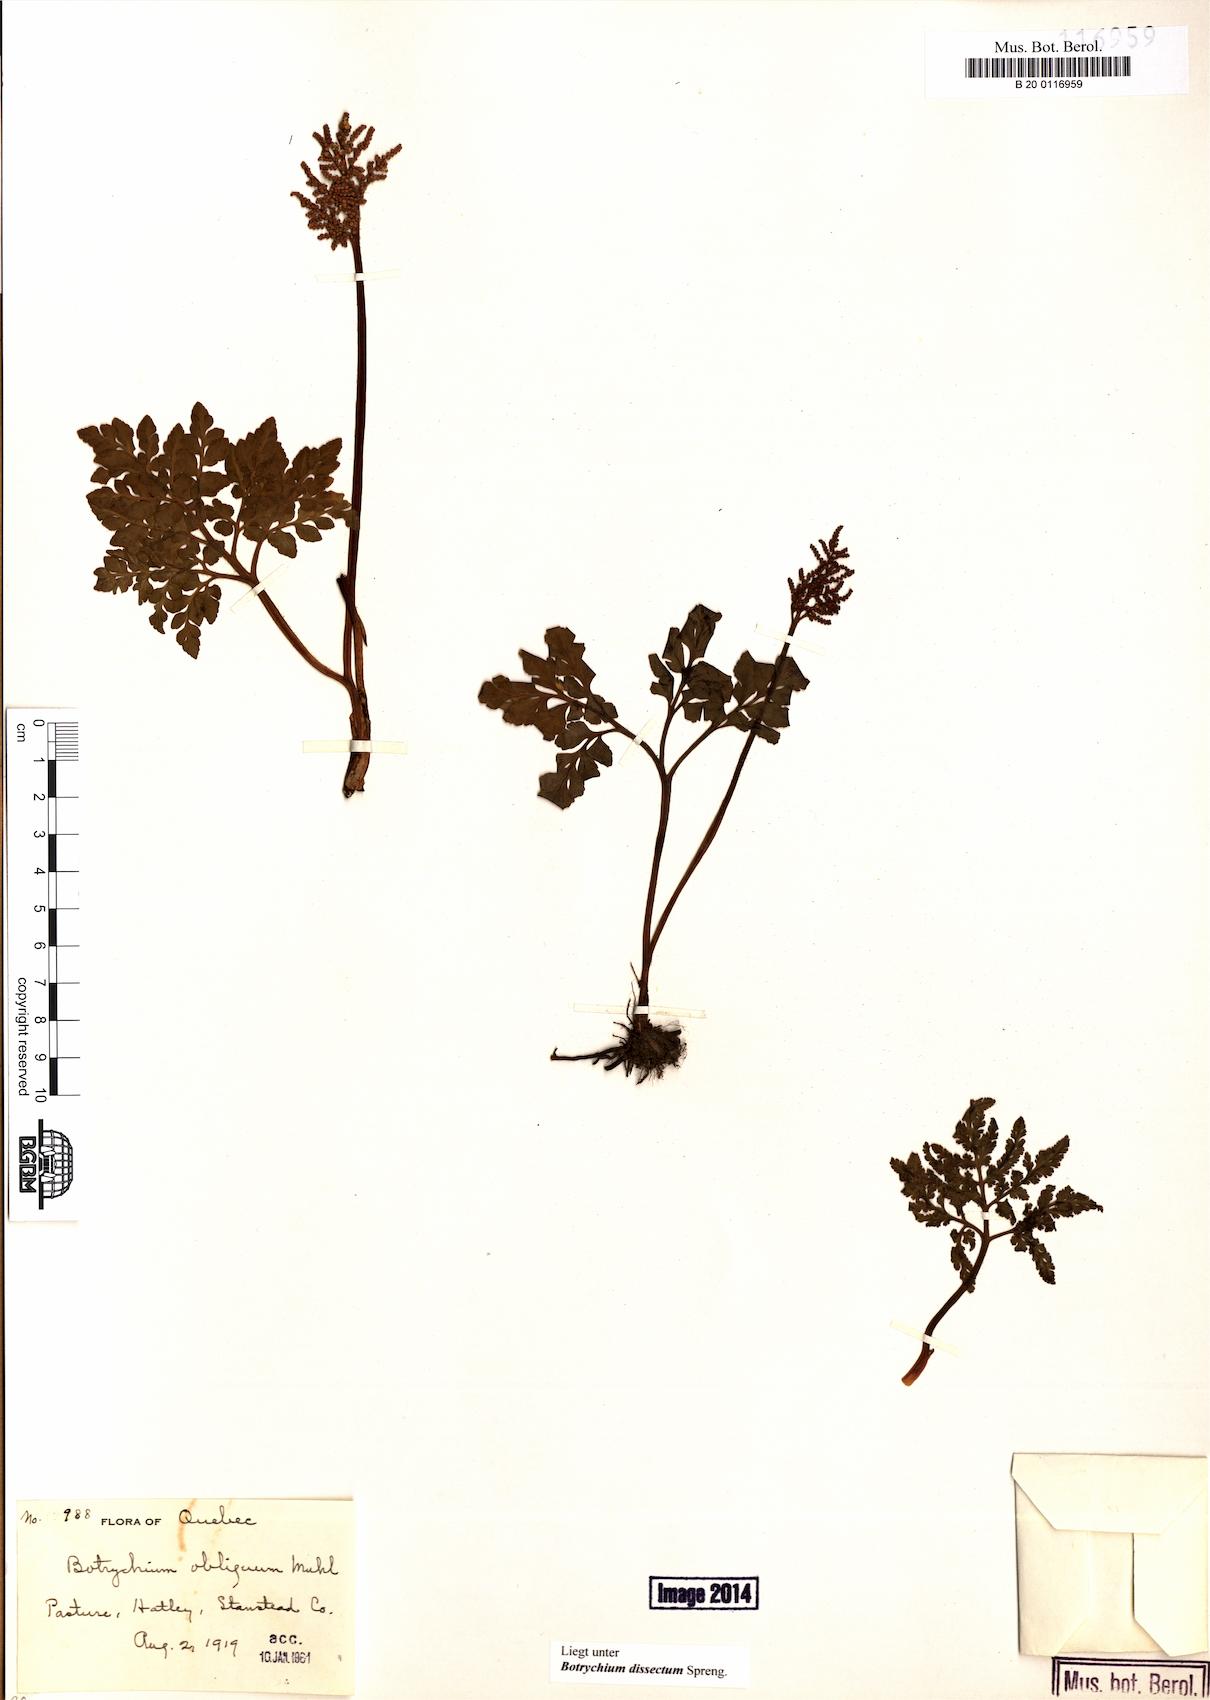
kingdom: Plantae
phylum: Tracheophyta
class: Polypodiopsida
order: Ophioglossales
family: Ophioglossaceae
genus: Sceptridium
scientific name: Sceptridium dissectum
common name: Cut-leaved grapefern
